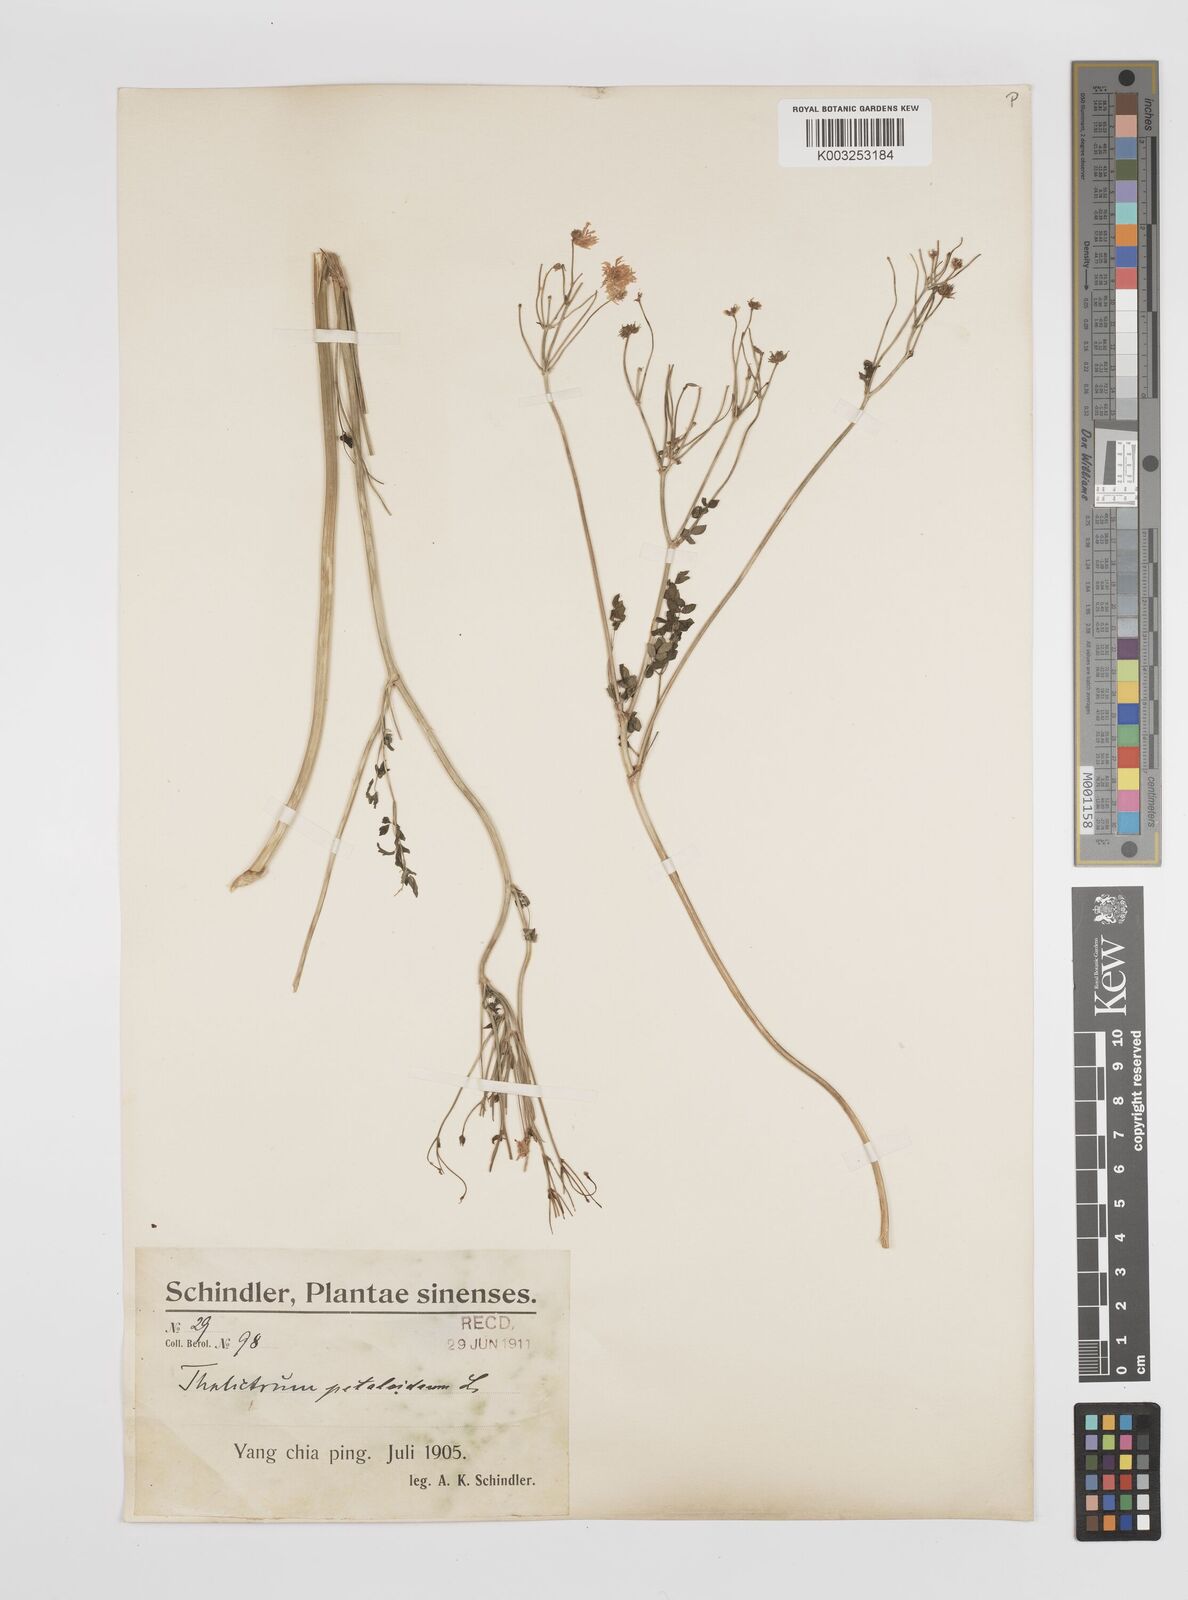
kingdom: Plantae
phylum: Tracheophyta
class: Magnoliopsida
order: Ranunculales
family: Ranunculaceae
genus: Thalictrum
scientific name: Thalictrum petaloideum
